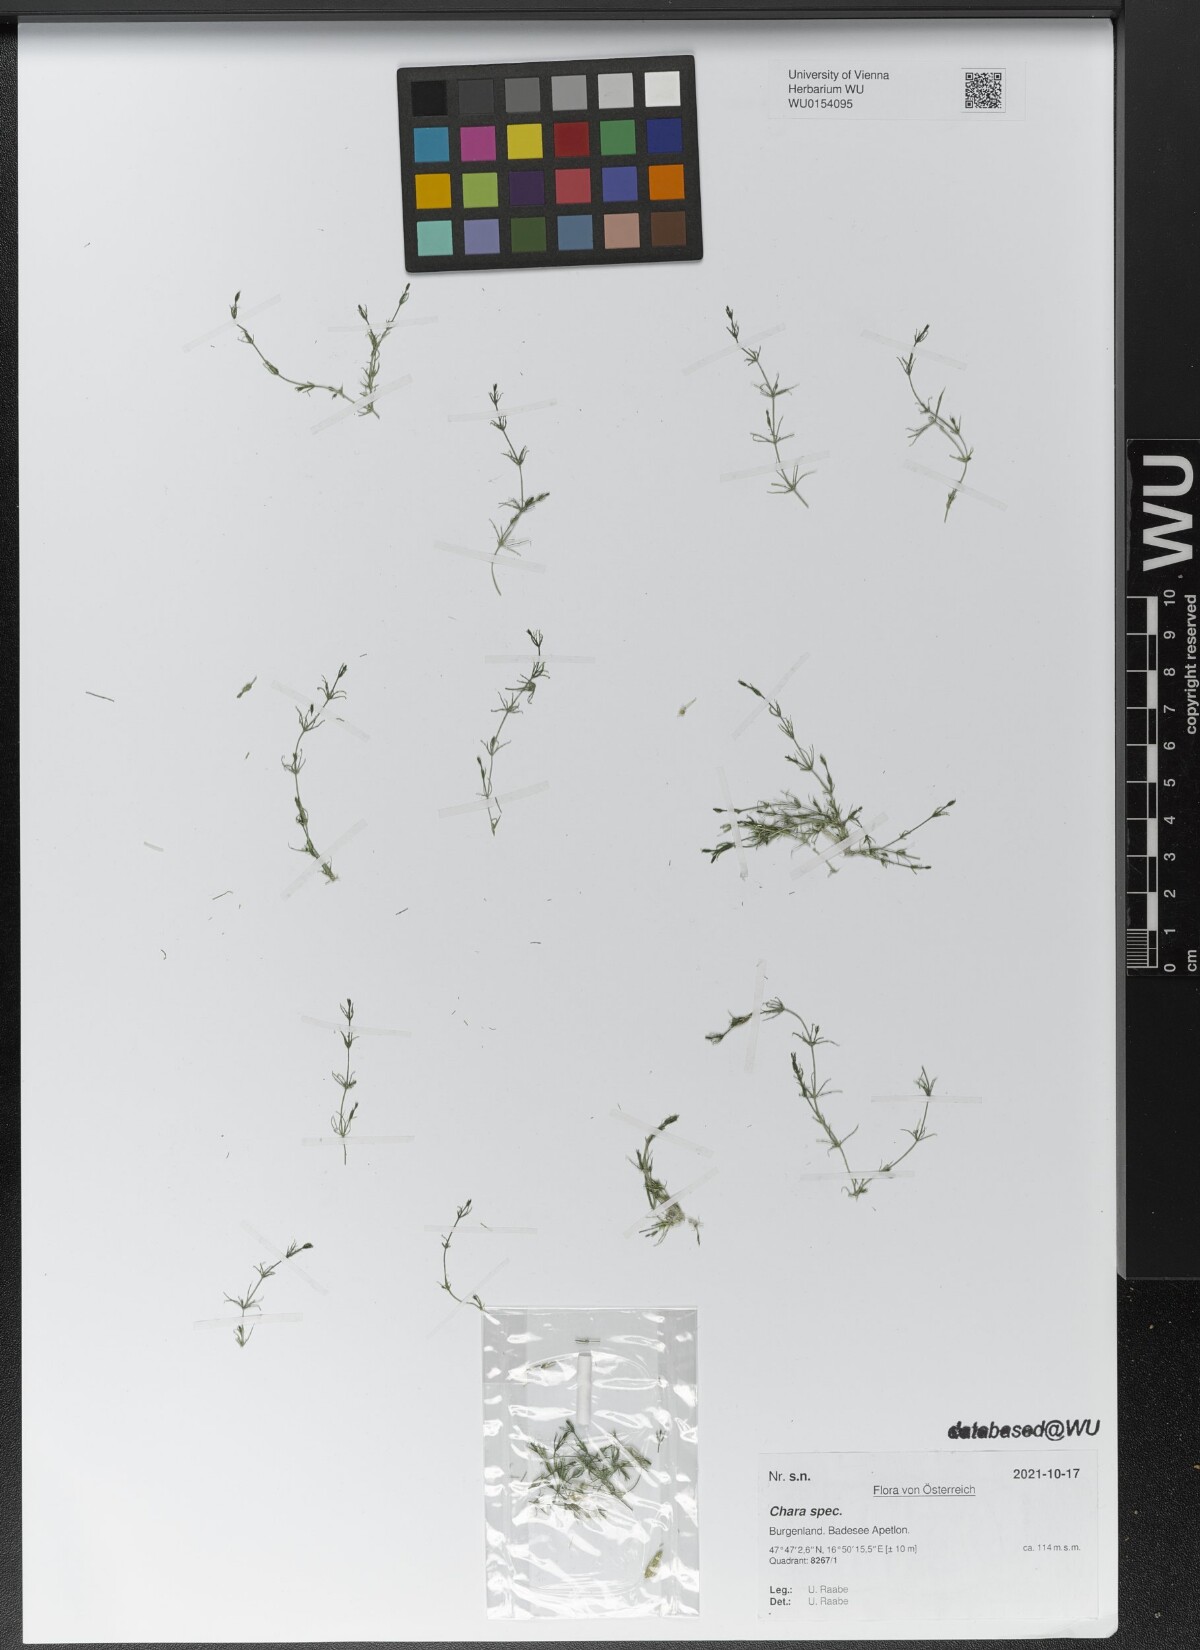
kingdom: Plantae
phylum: Charophyta
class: Charophyceae
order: Charales
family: Characeae
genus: Chara
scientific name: Chara
